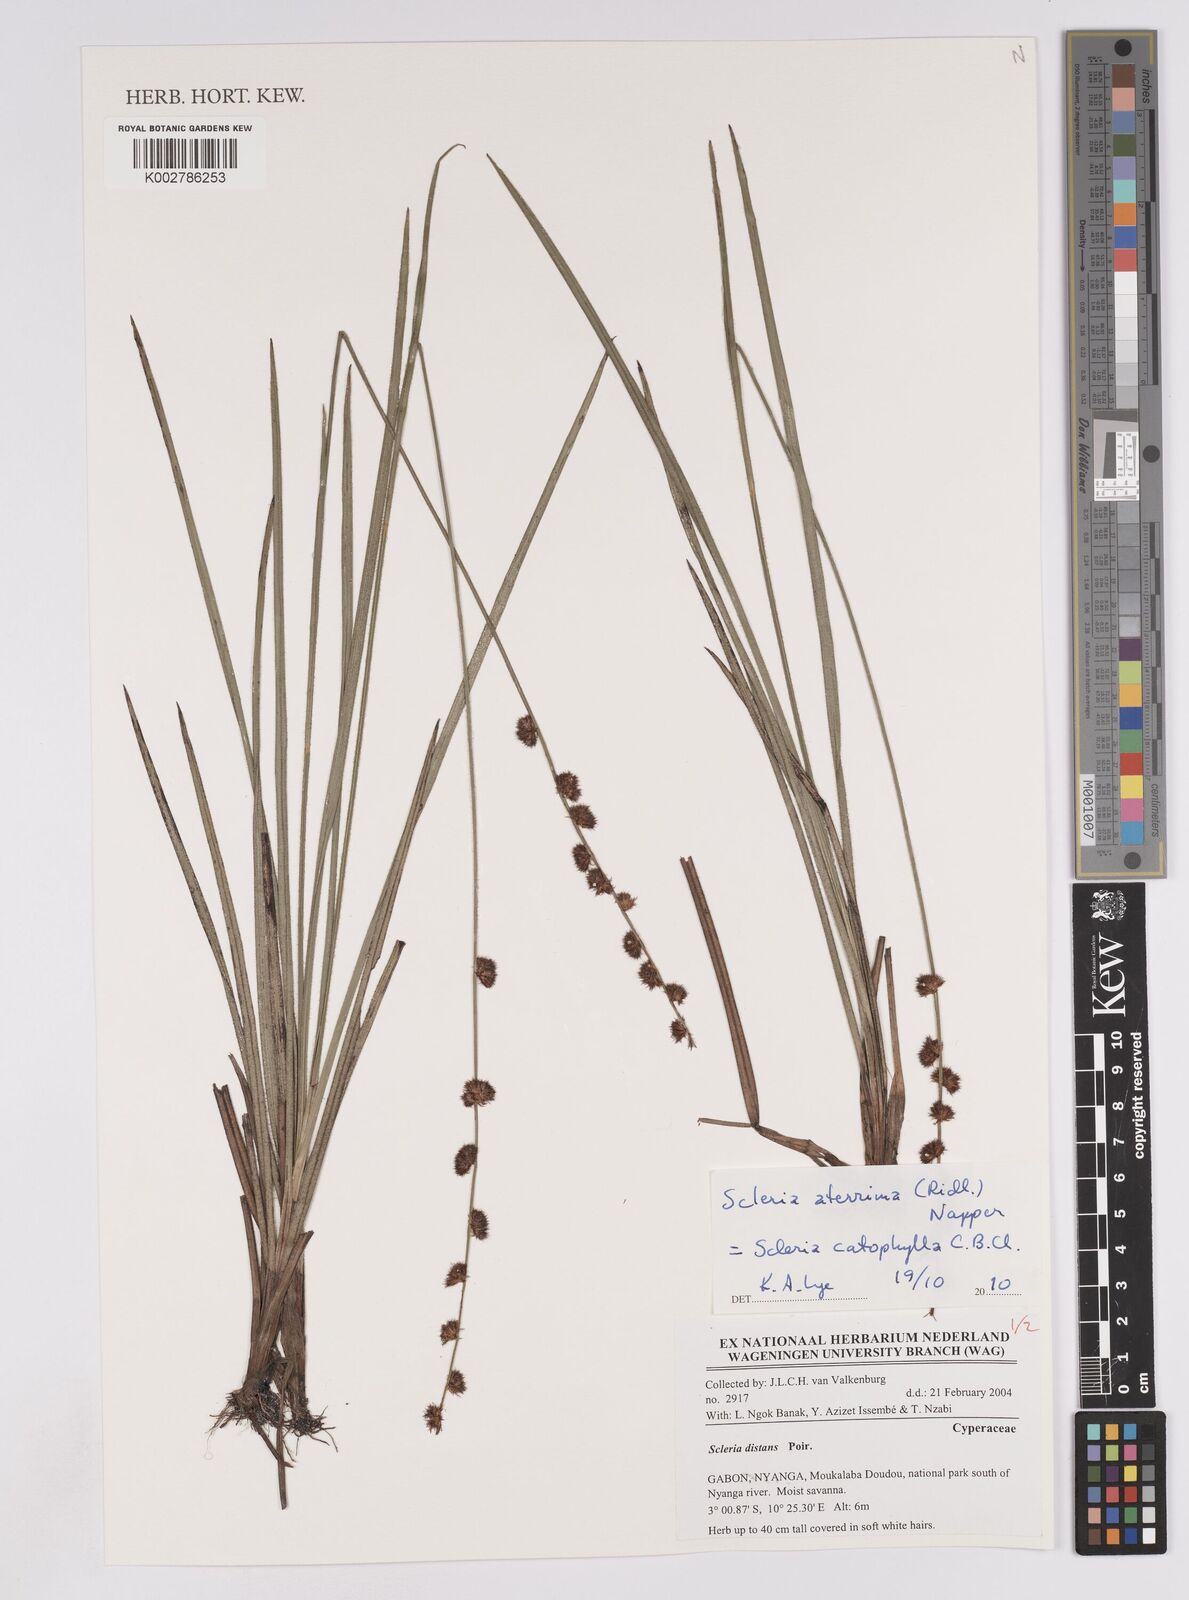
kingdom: Plantae
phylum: Tracheophyta
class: Liliopsida
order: Poales
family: Cyperaceae
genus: Scleria
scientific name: Scleria catophylla
